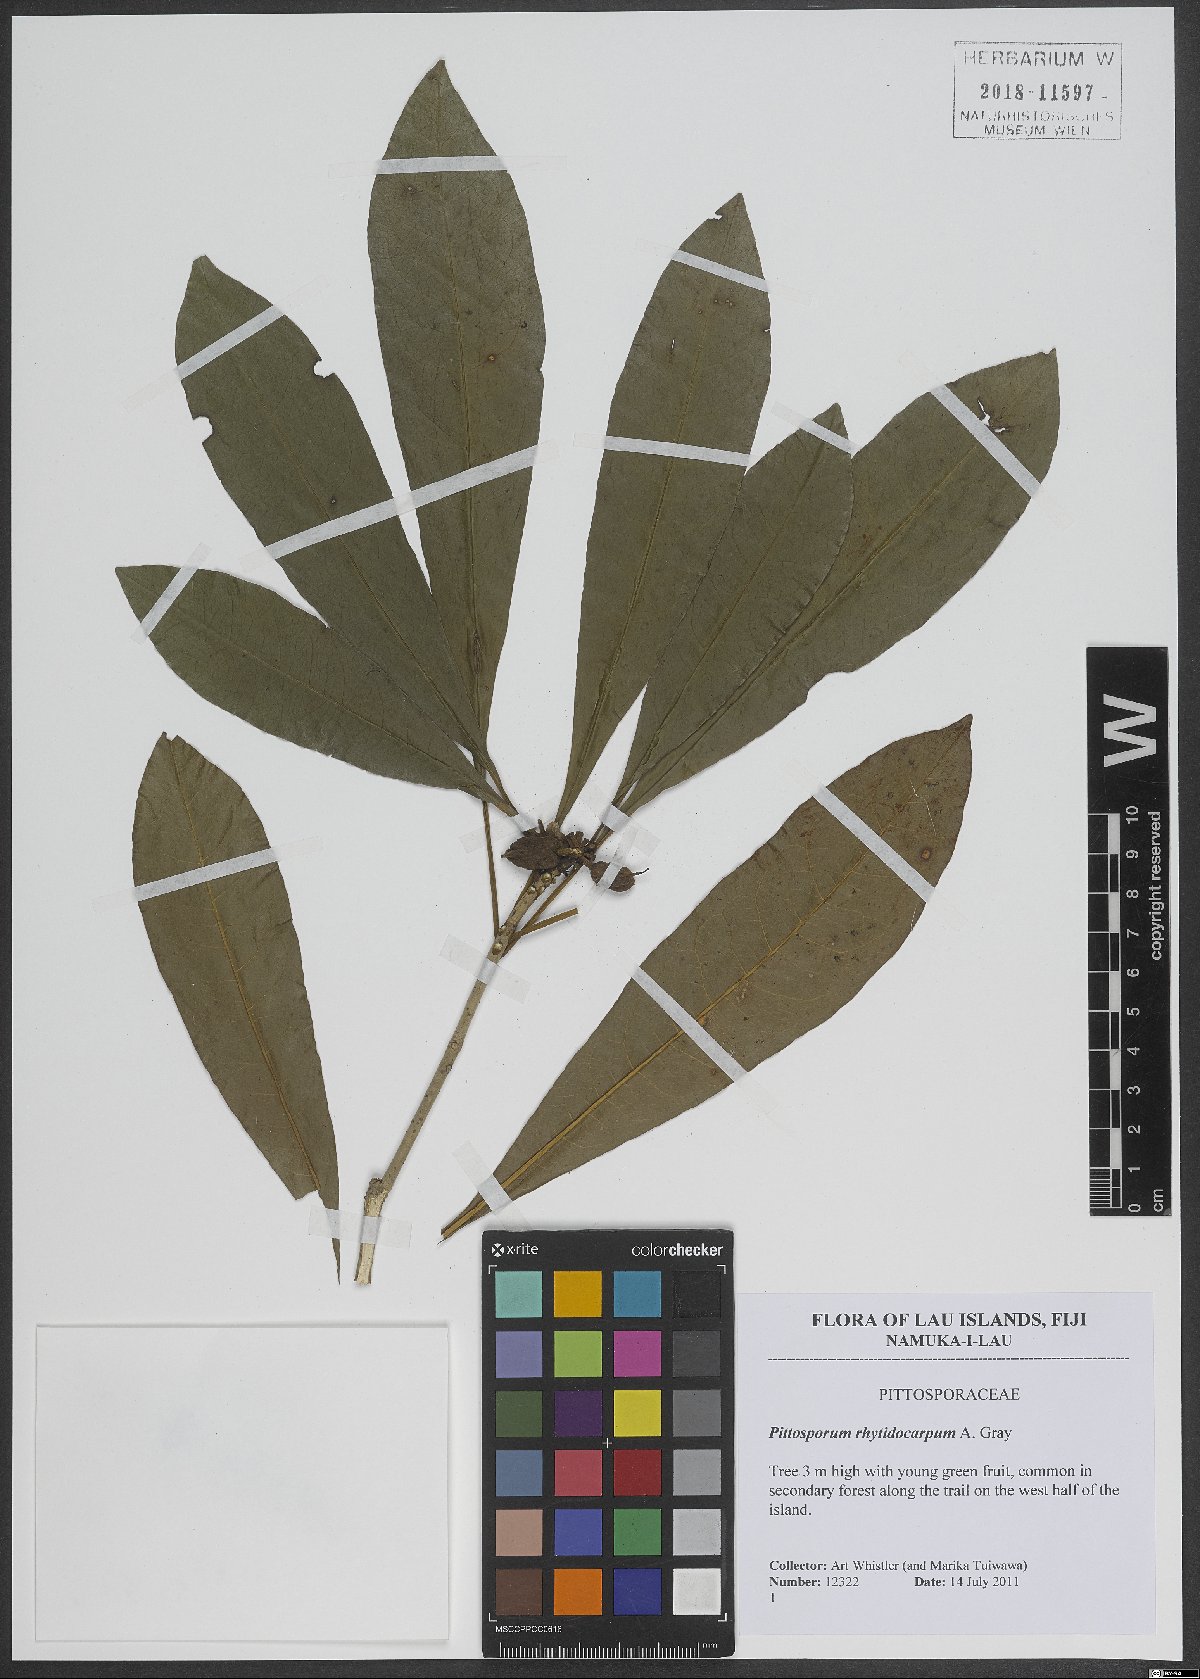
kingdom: Plantae
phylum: Tracheophyta
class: Magnoliopsida
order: Apiales
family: Pittosporaceae
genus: Pittosporum
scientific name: Pittosporum rhytidocarpum
